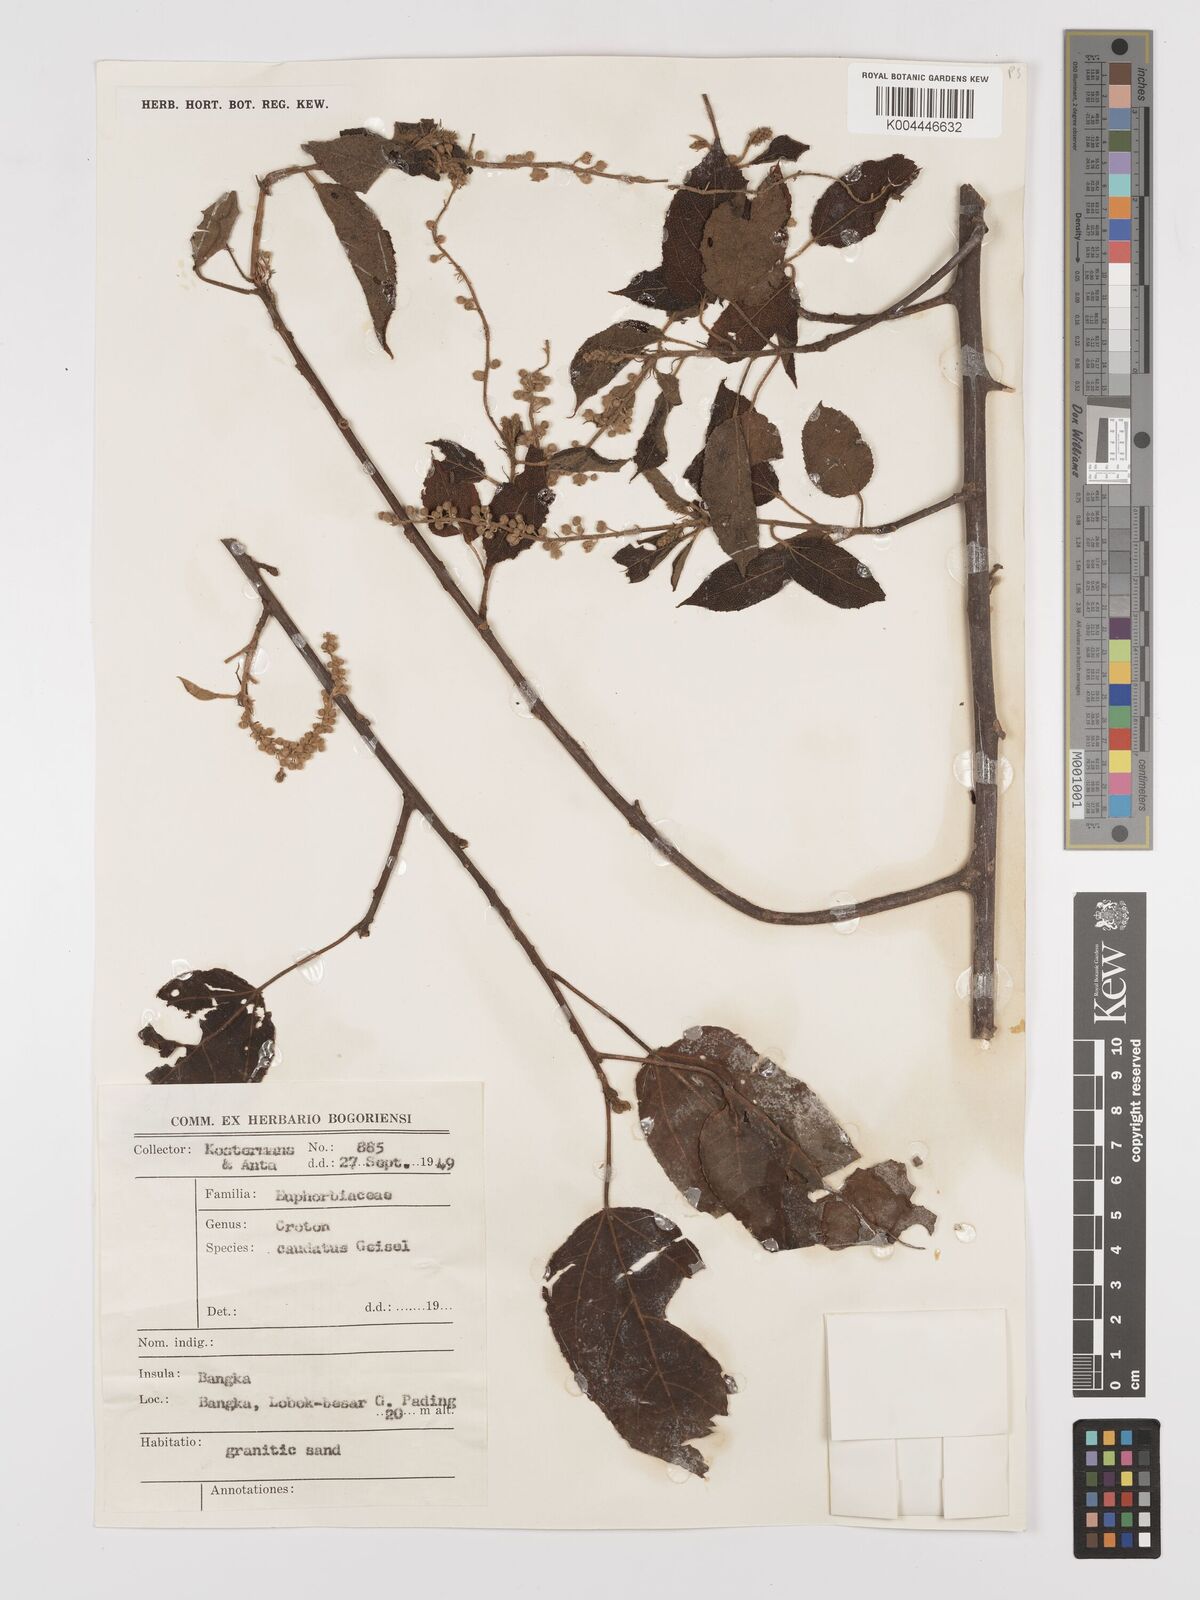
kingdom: Plantae
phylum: Tracheophyta
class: Magnoliopsida
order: Malpighiales
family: Euphorbiaceae
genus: Croton
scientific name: Croton caudatus
